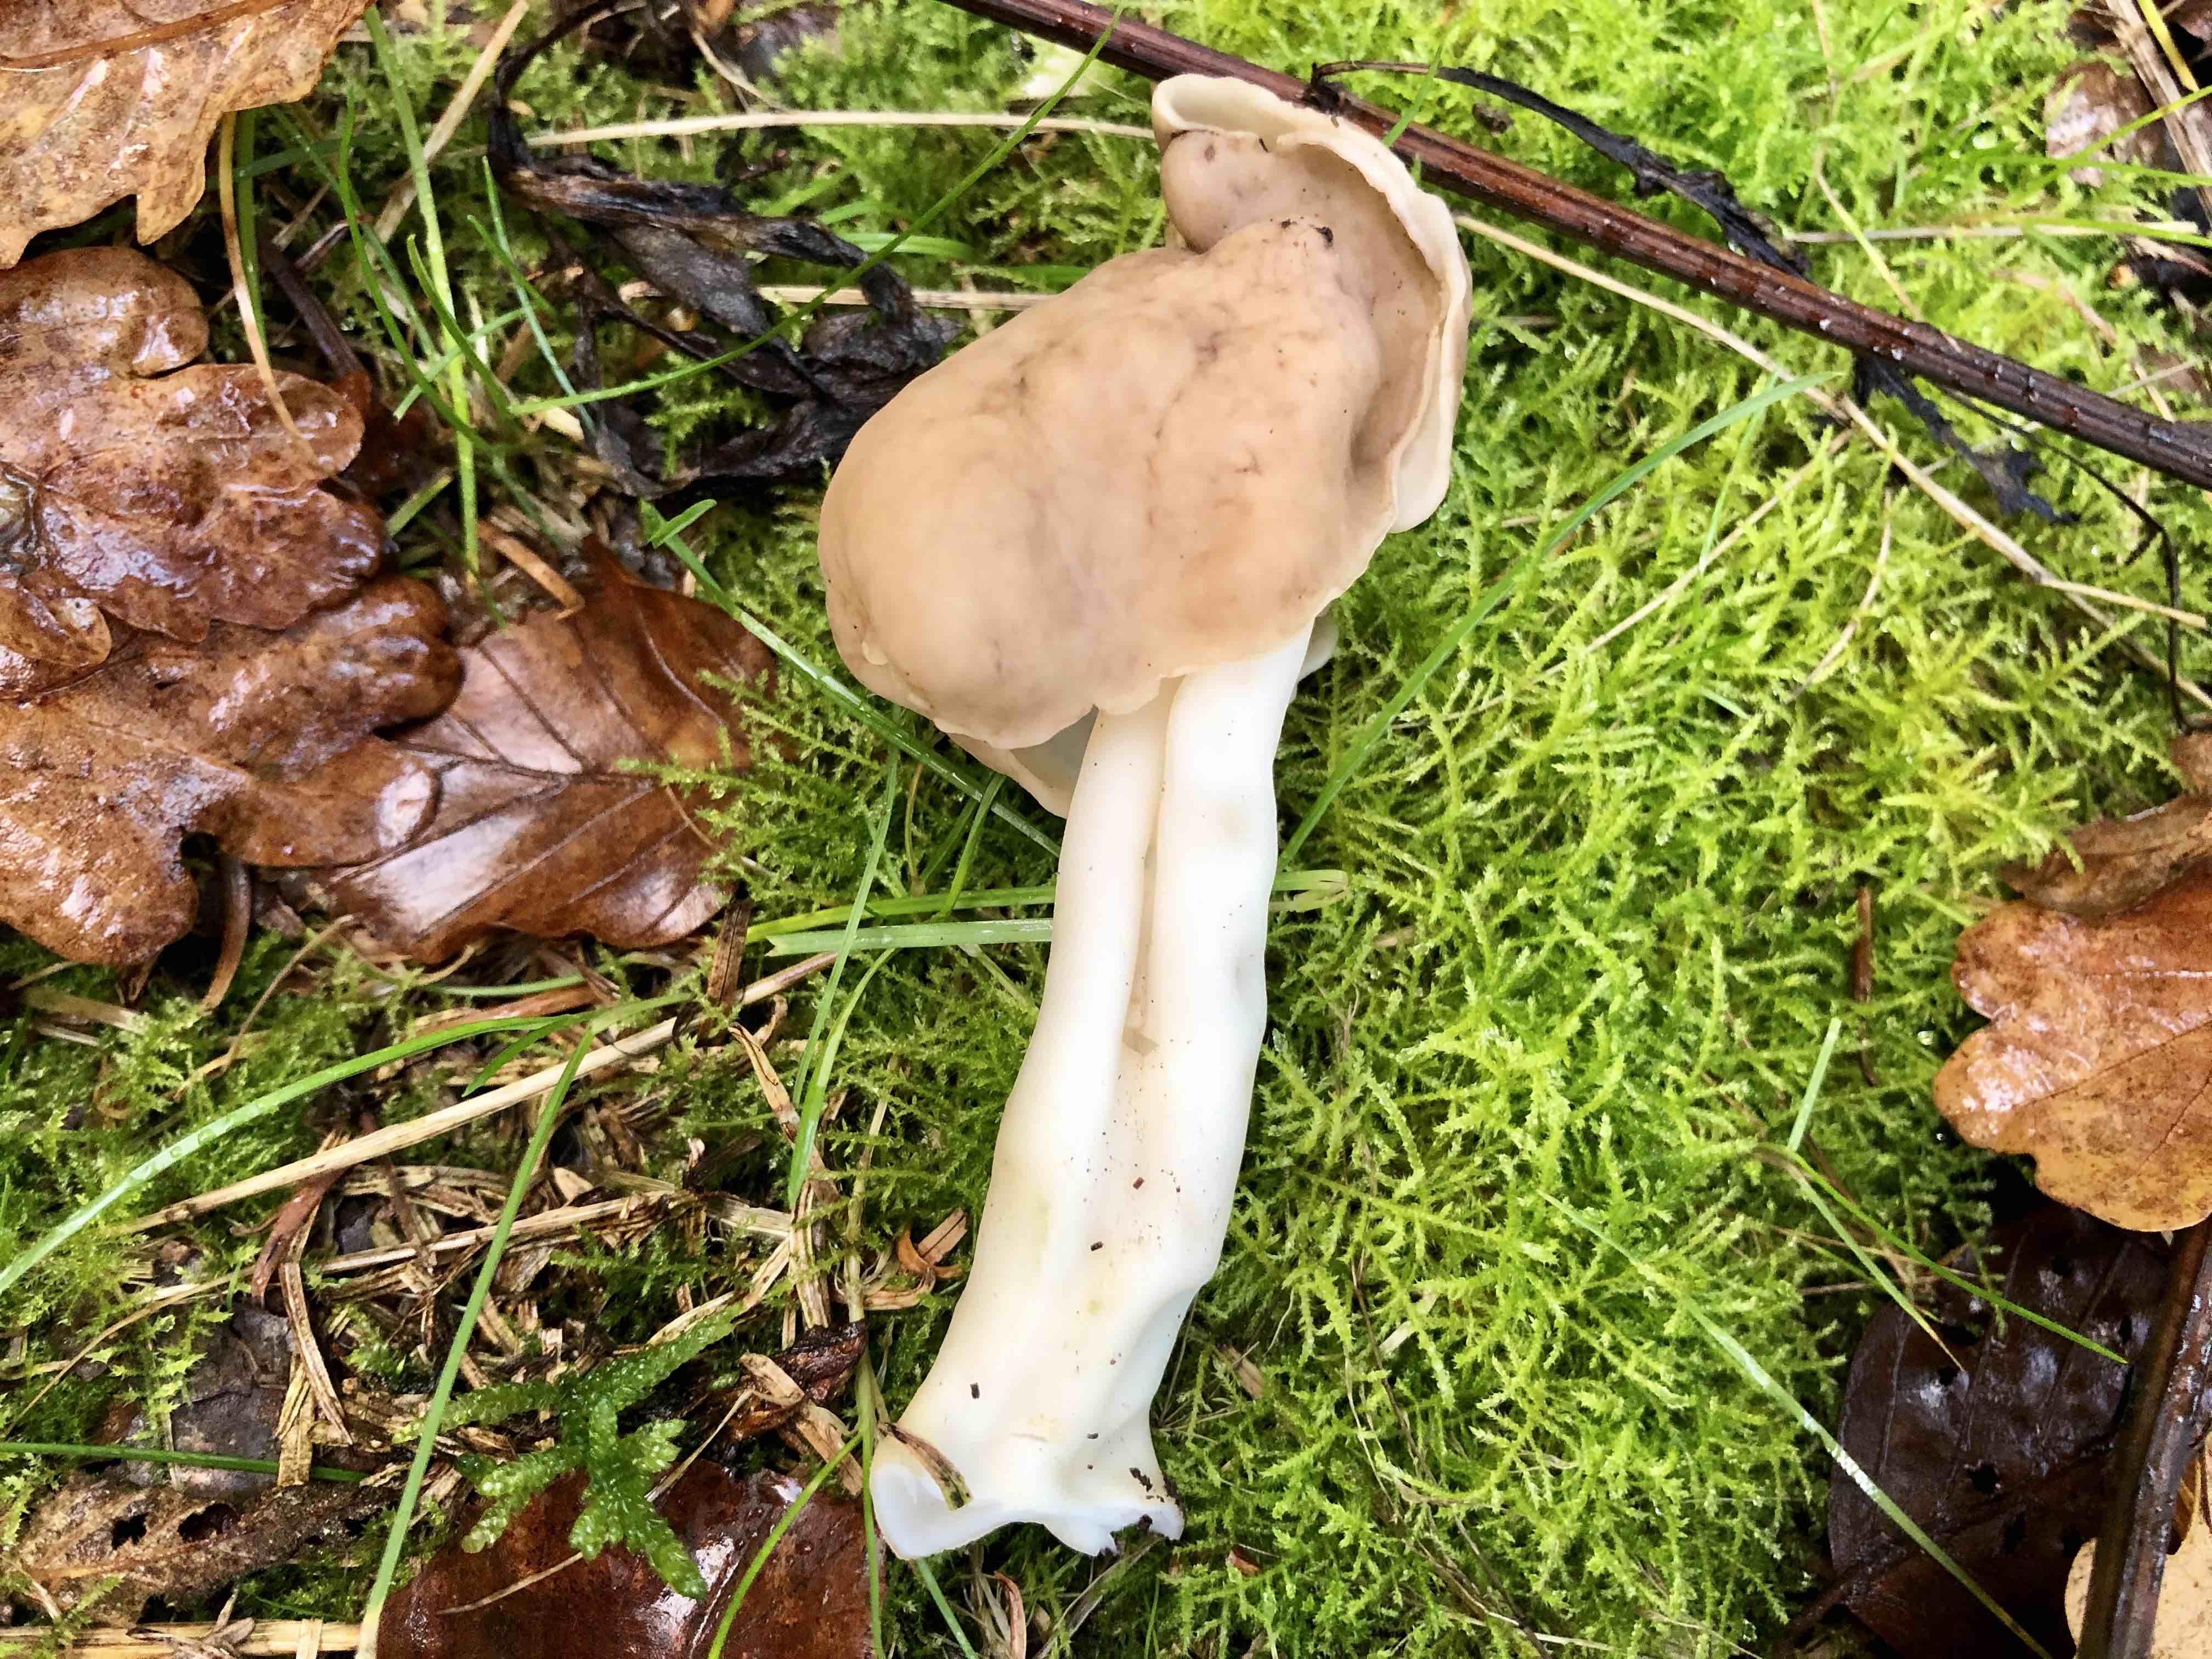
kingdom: Fungi
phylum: Ascomycota
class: Pezizomycetes
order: Pezizales
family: Helvellaceae
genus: Helvella
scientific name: Helvella elastica
